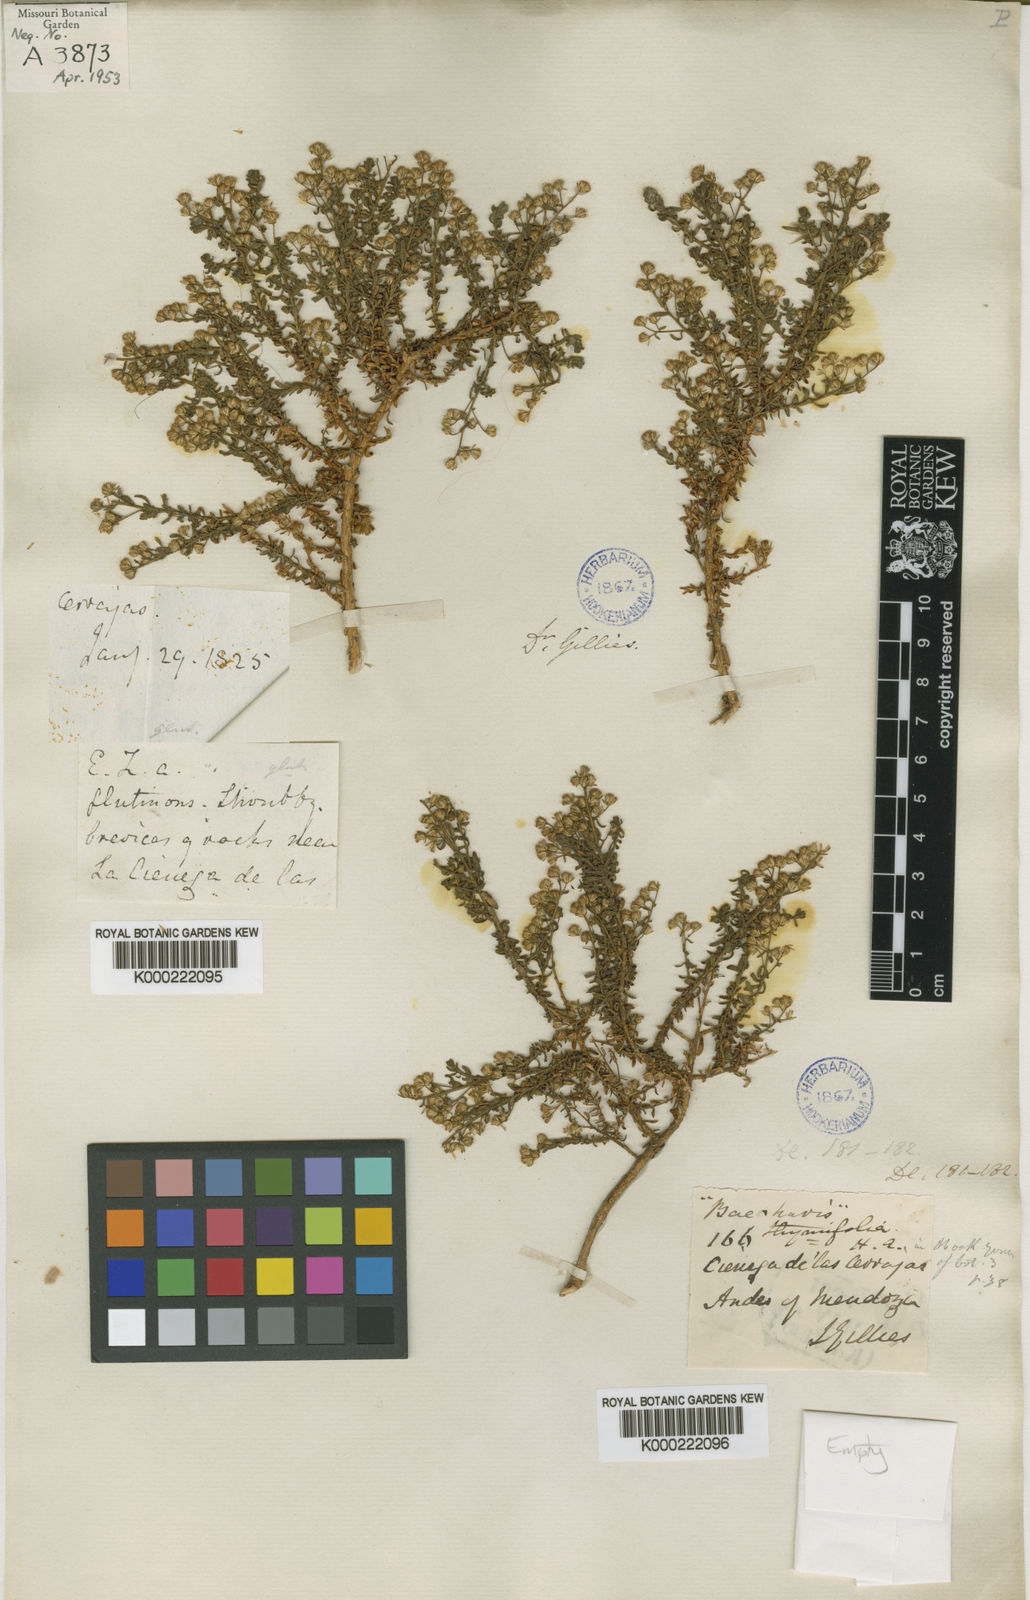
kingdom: Plantae
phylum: Tracheophyta
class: Magnoliopsida
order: Asterales
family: Asteraceae
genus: Baccharis
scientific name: Baccharis thymifolia
